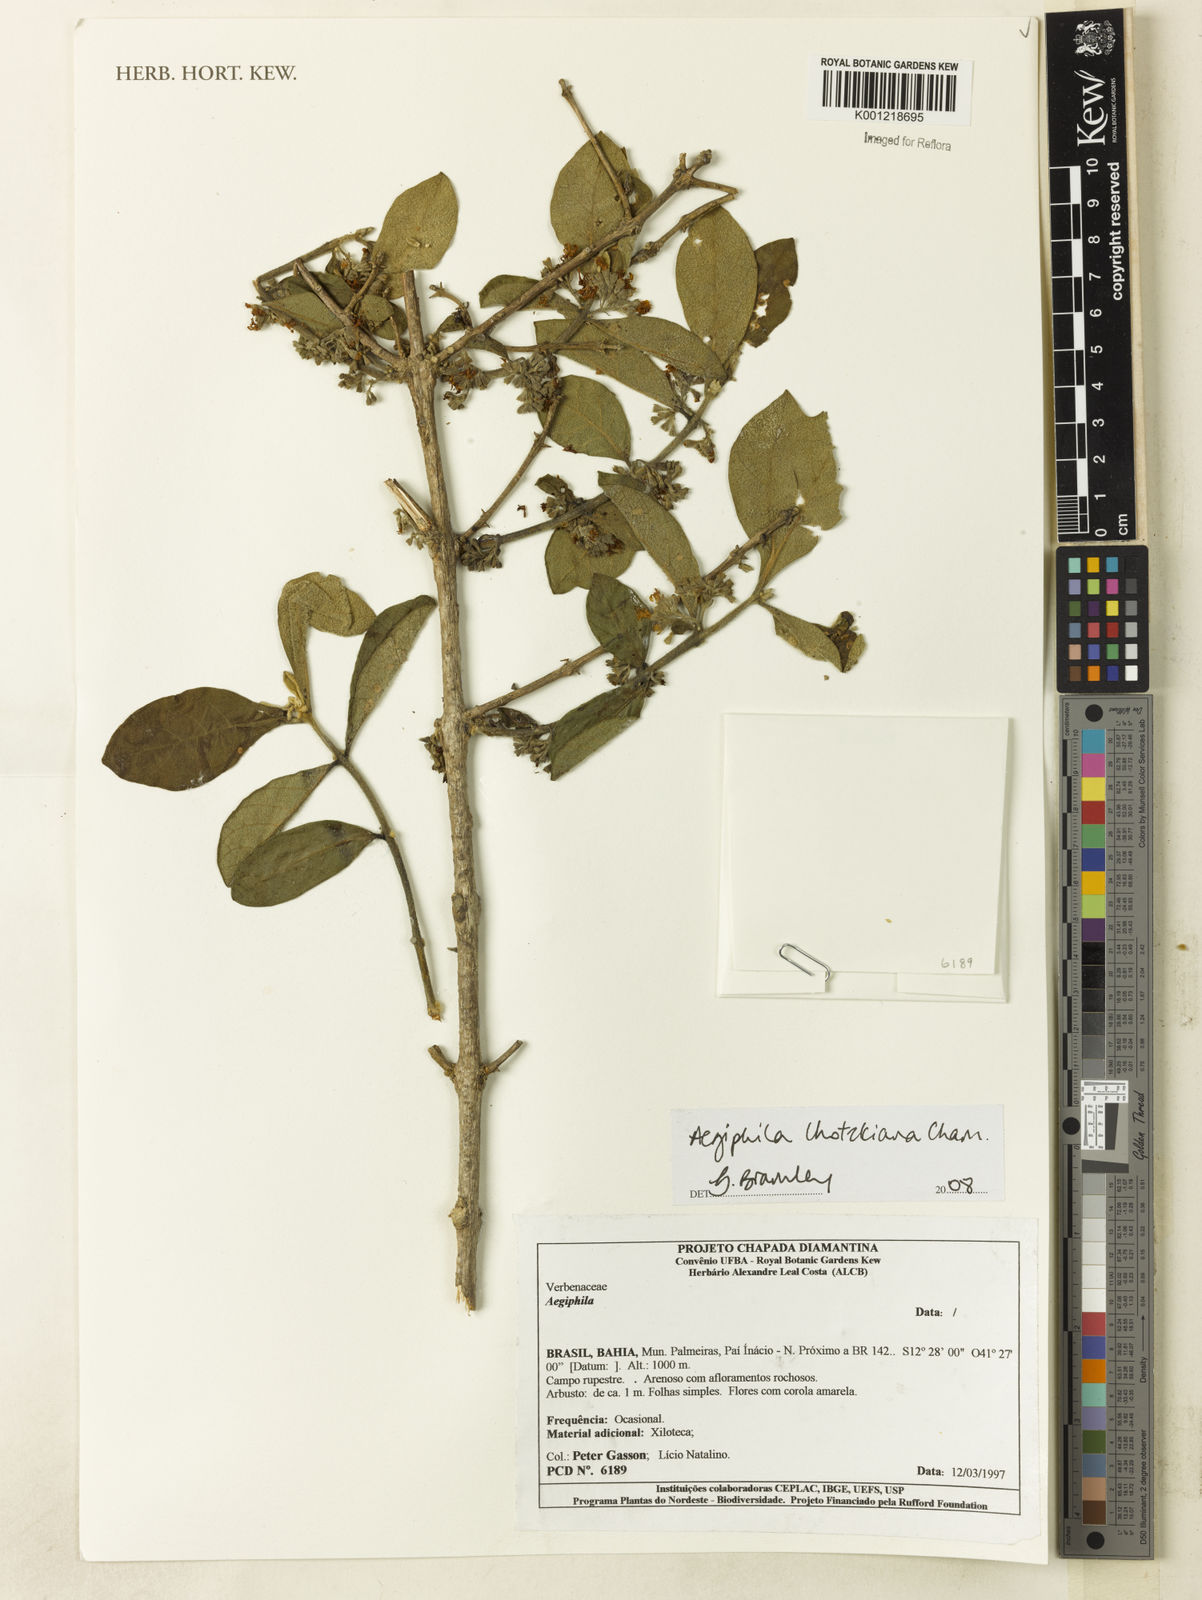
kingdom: Plantae
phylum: Tracheophyta
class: Magnoliopsida
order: Lamiales
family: Lamiaceae
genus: Aegiphila
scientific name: Aegiphila verticillata
